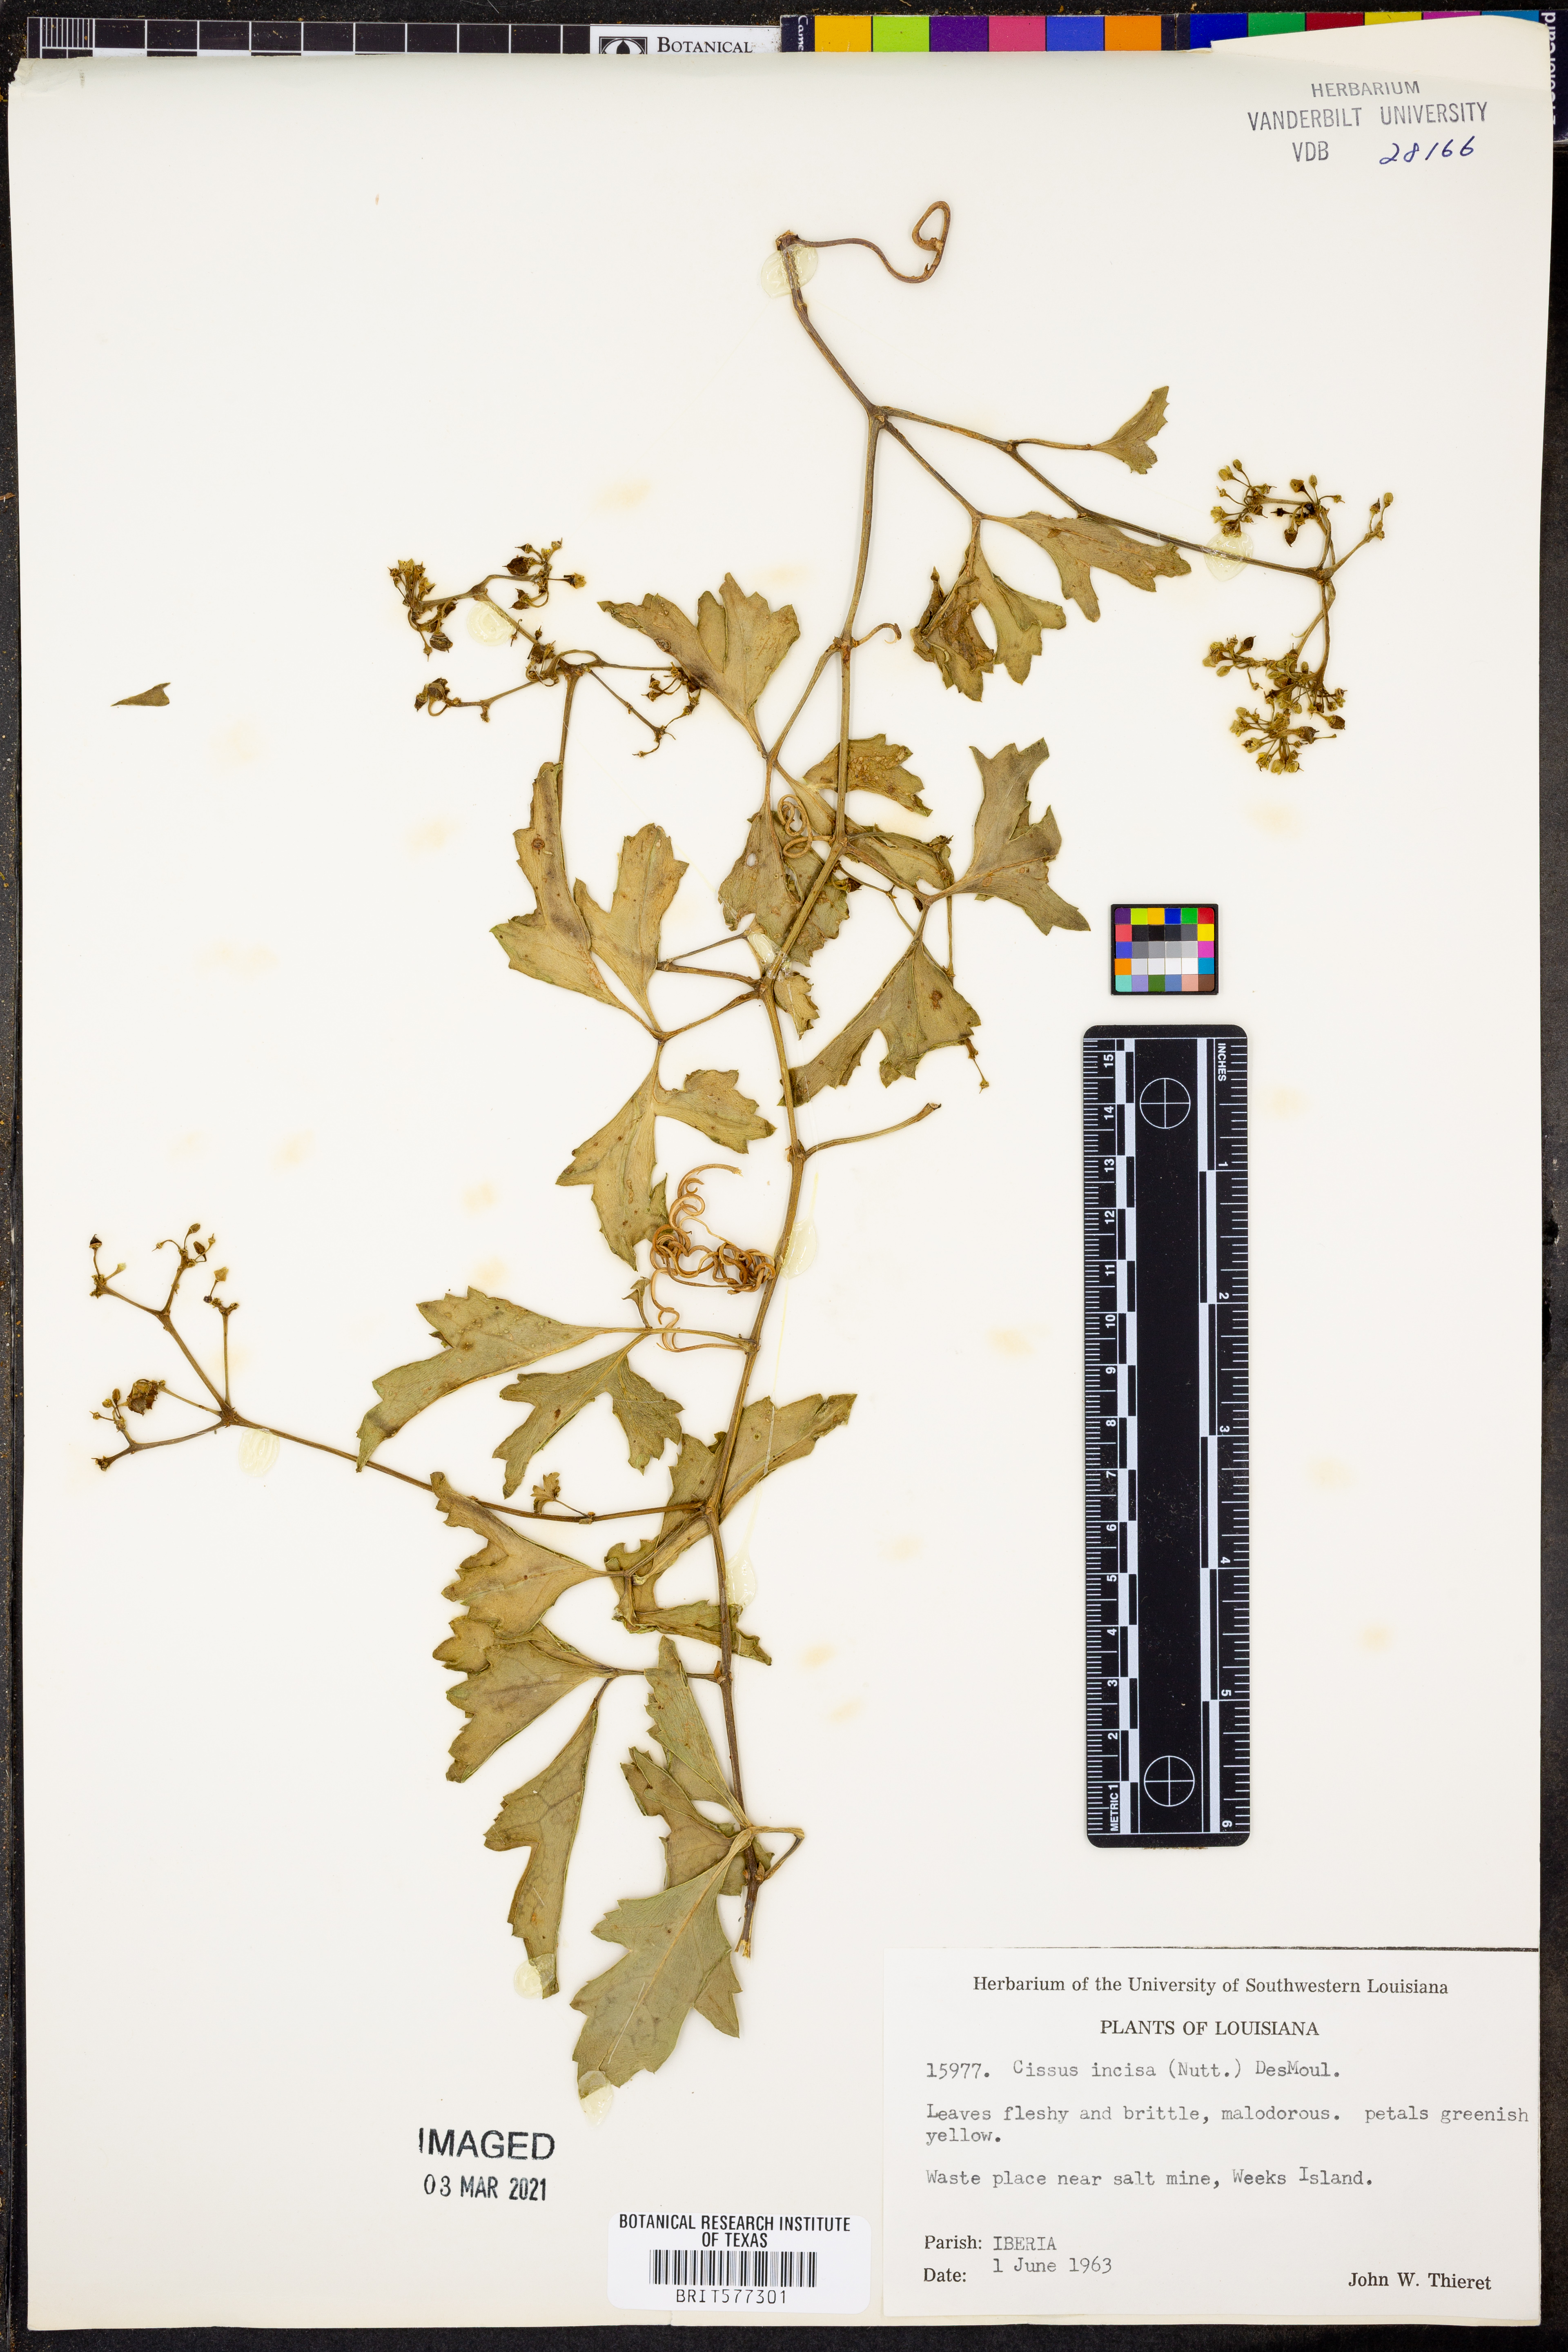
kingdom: Plantae
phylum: Tracheophyta
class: Magnoliopsida
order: Vitales
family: Vitaceae
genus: Cissus
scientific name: Cissus trifoliata
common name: Vine-sorrel
